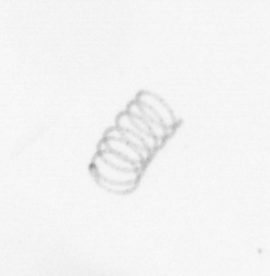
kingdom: Chromista
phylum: Ochrophyta
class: Bacillariophyceae
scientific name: Bacillariophyceae
